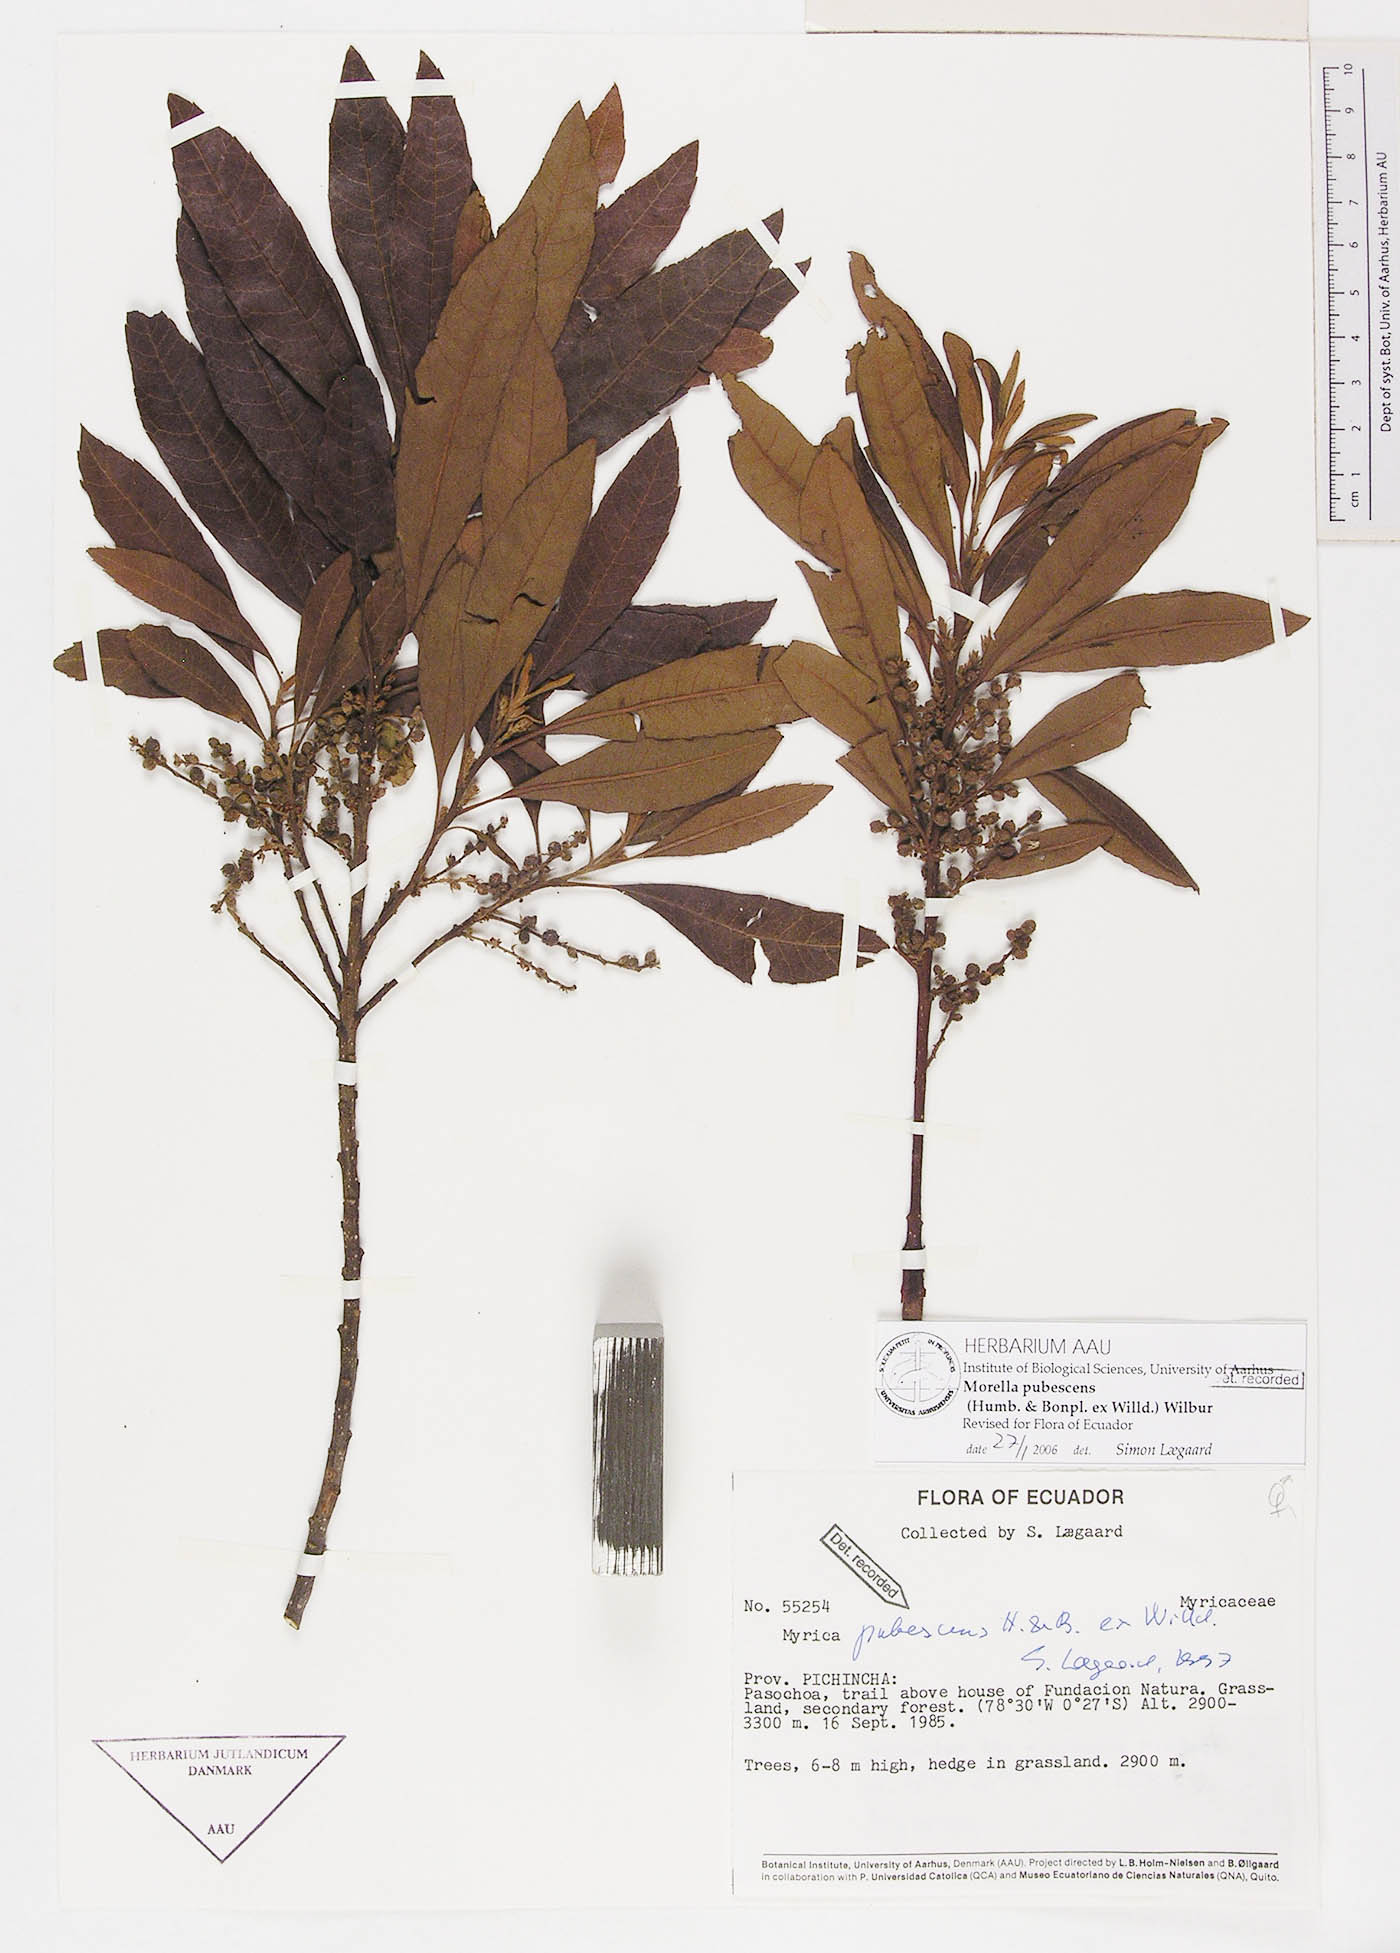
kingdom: Plantae
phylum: Tracheophyta
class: Magnoliopsida
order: Fagales
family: Myricaceae
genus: Morella
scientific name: Morella pubescens
